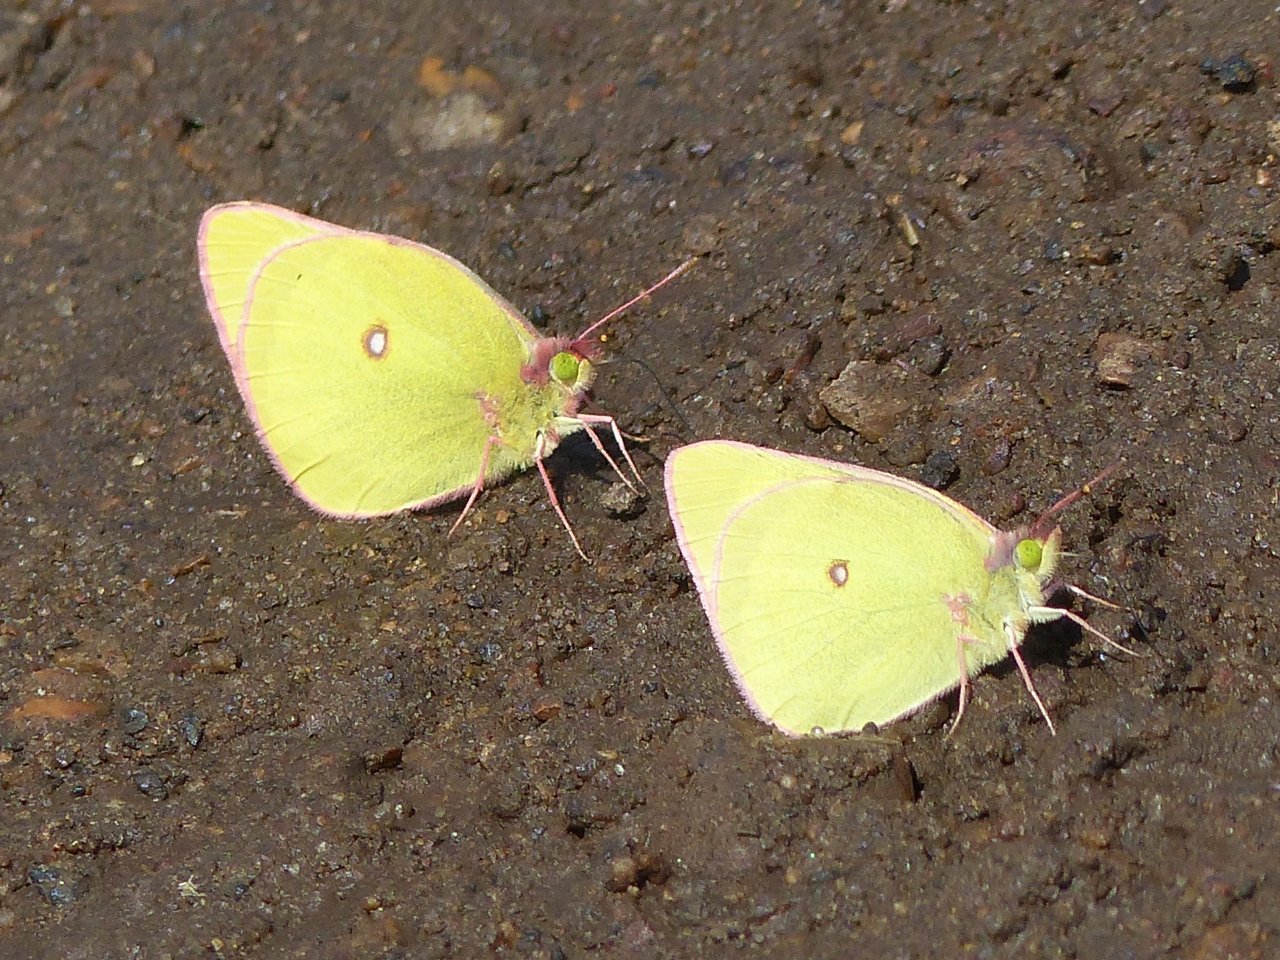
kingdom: Animalia
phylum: Arthropoda
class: Insecta
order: Lepidoptera
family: Pieridae
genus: Colias
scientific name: Colias interior
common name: Pink-edged Sulphur
